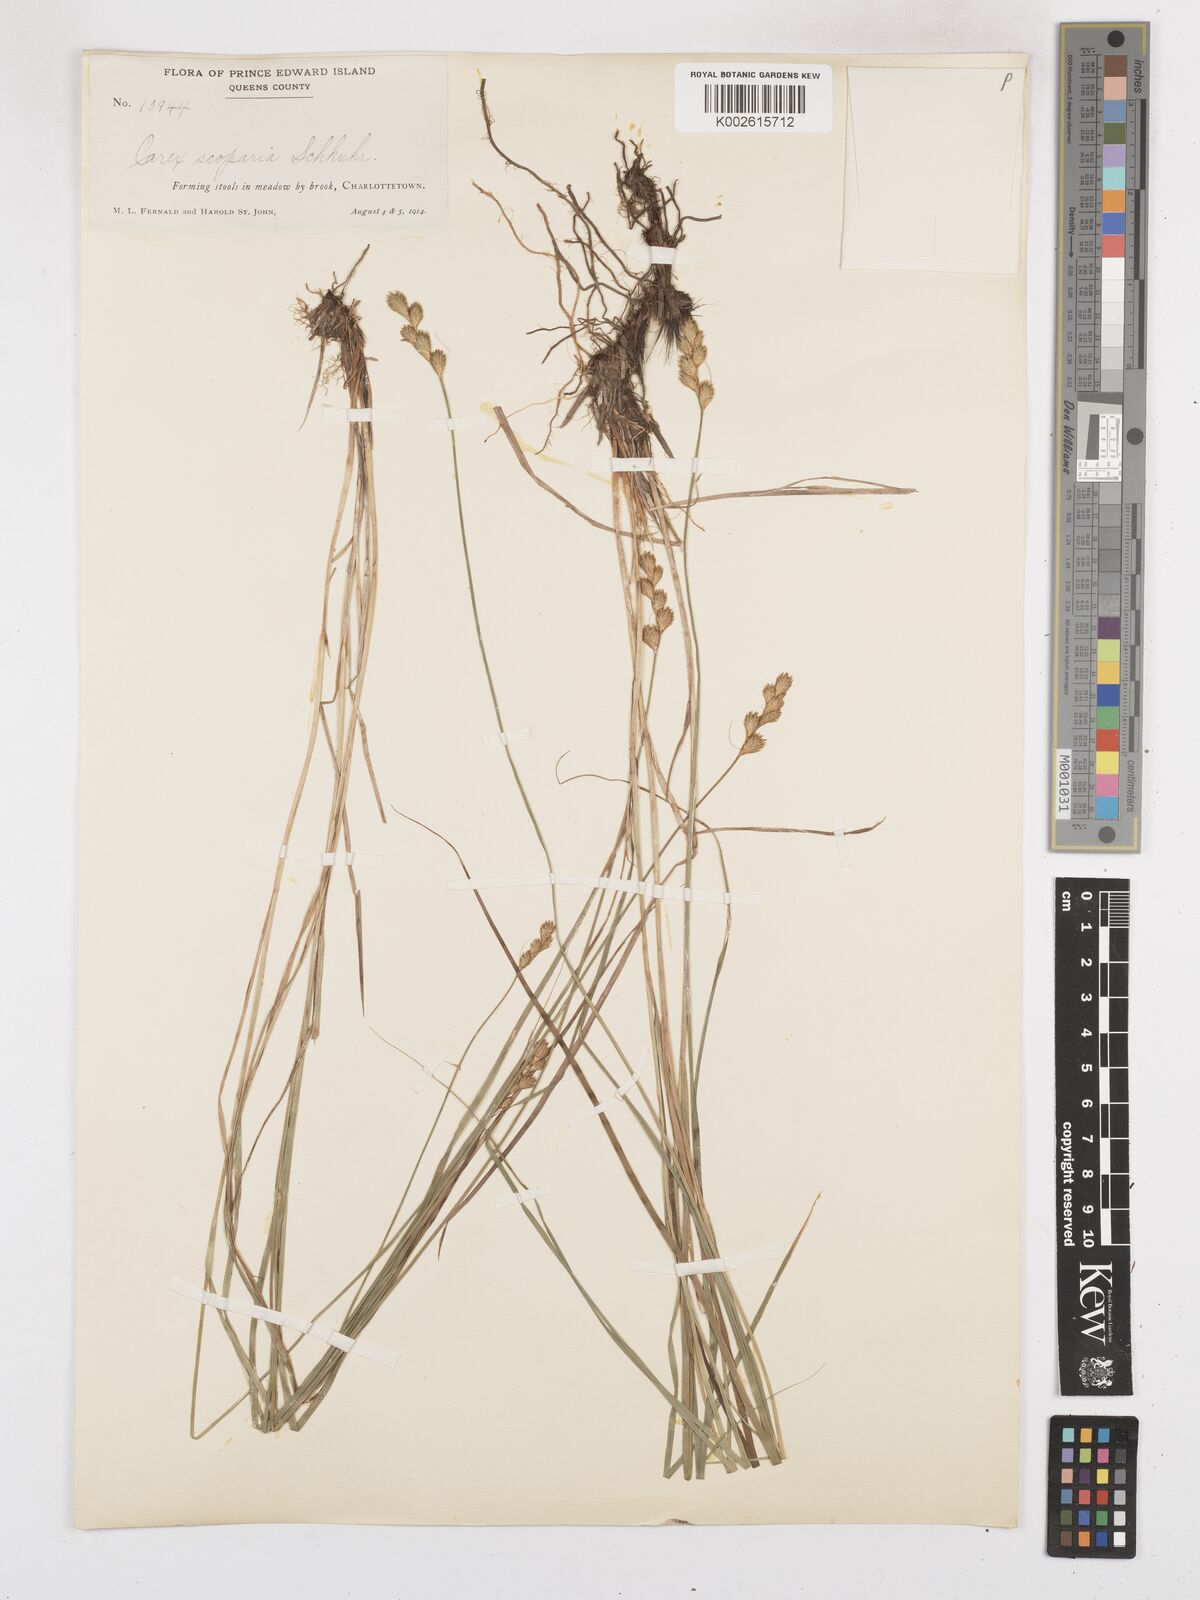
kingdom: Plantae
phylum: Tracheophyta
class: Liliopsida
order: Poales
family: Cyperaceae
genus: Carex
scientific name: Carex leporina
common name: Oval sedge
